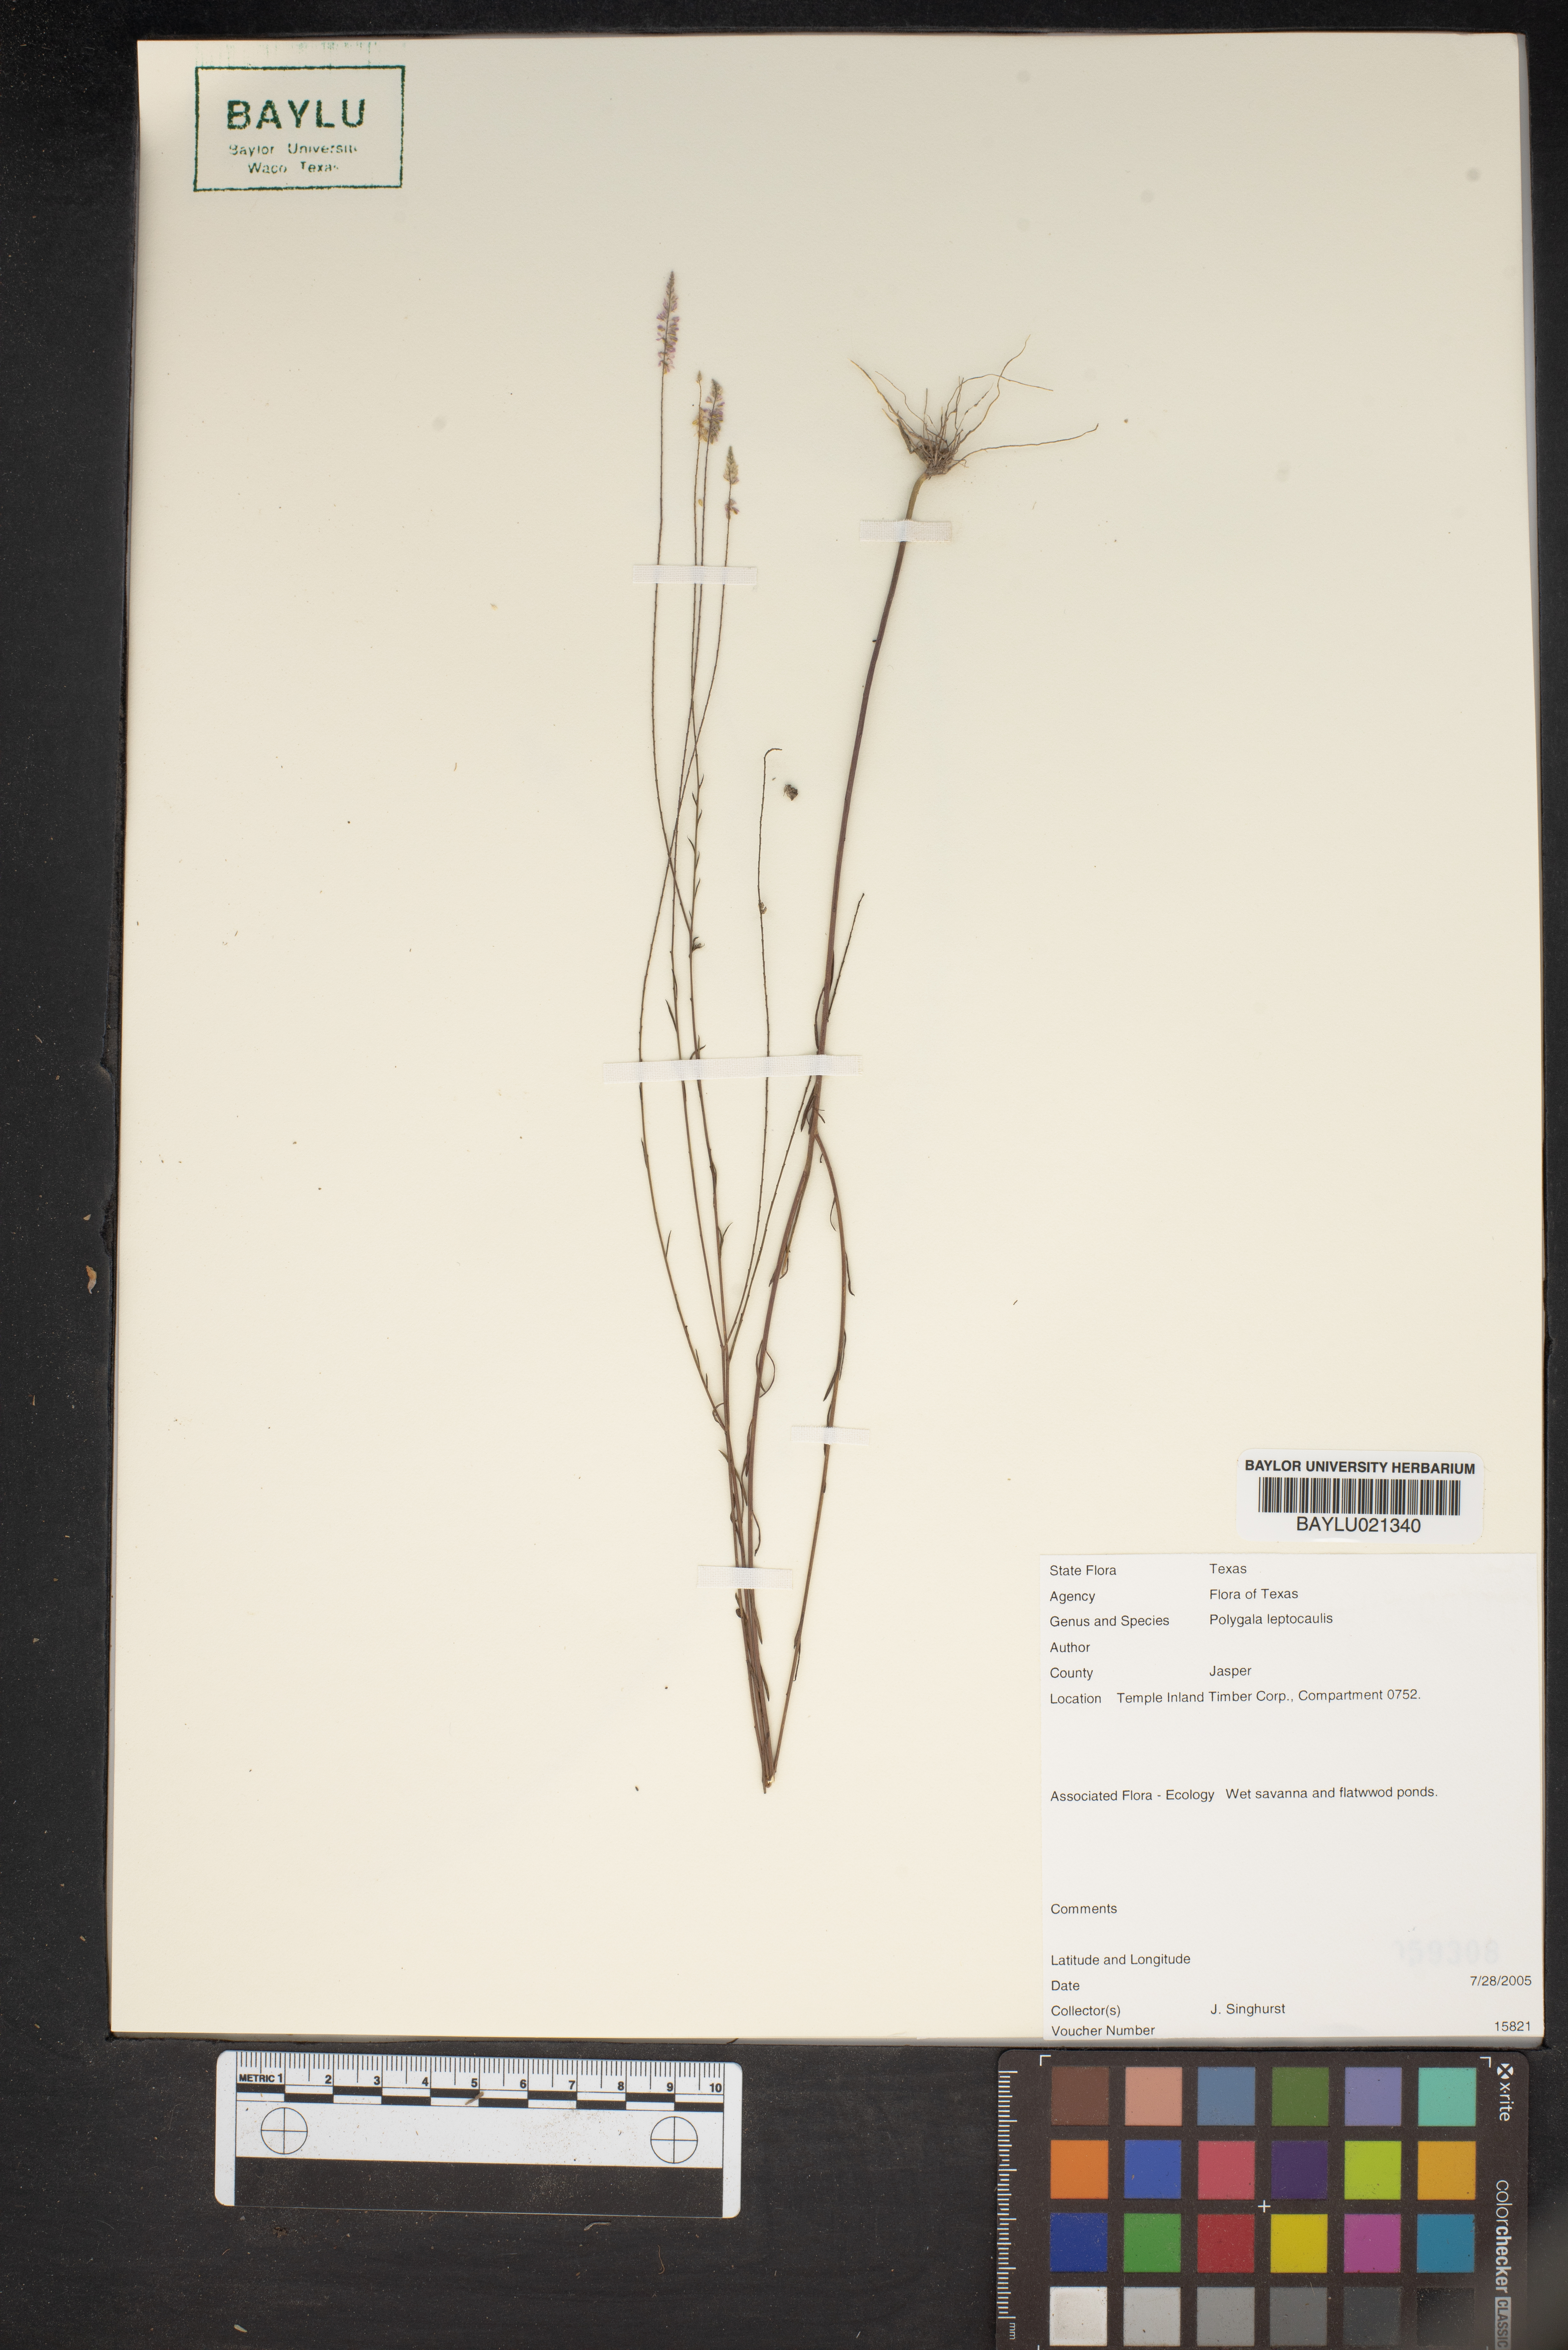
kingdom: Plantae
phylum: Tracheophyta
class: Magnoliopsida
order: Fabales
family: Polygalaceae
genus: Polygala
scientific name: Polygala tenella
